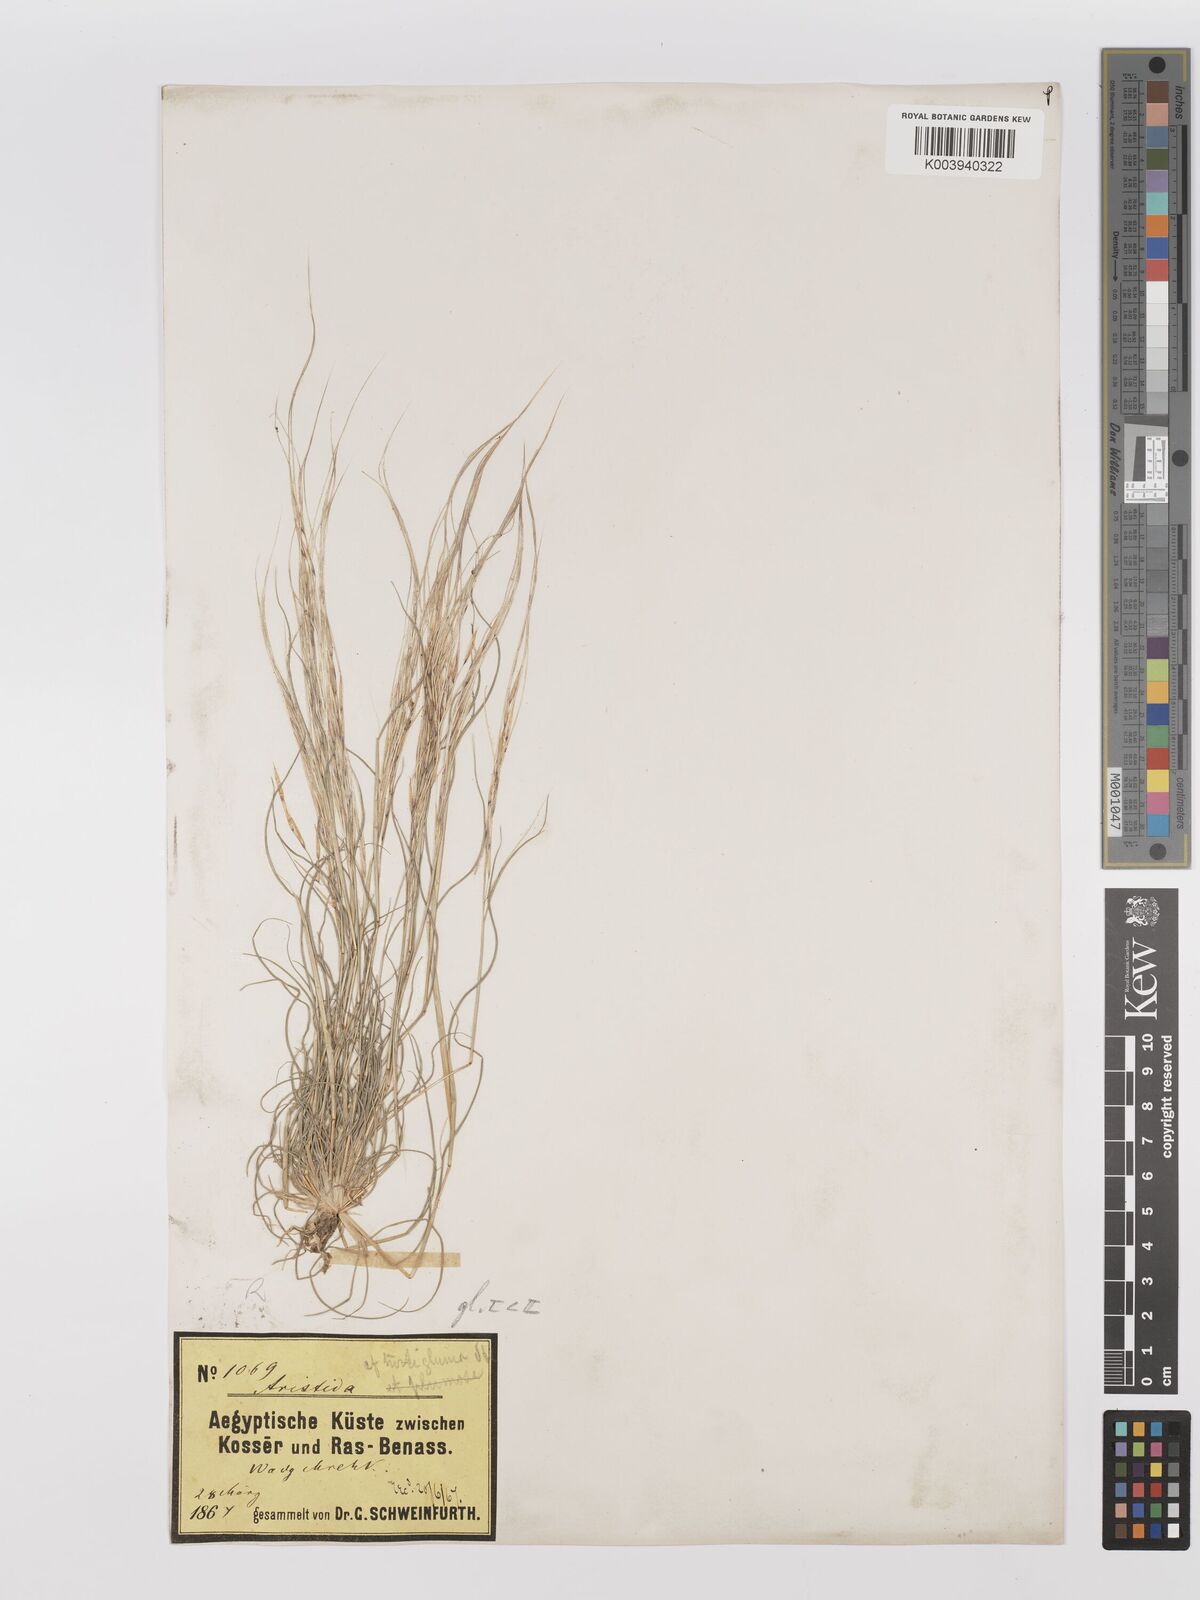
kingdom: Plantae
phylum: Tracheophyta
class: Liliopsida
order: Poales
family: Poaceae
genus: Stipagrostis
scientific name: Stipagrostis hirtigluma
